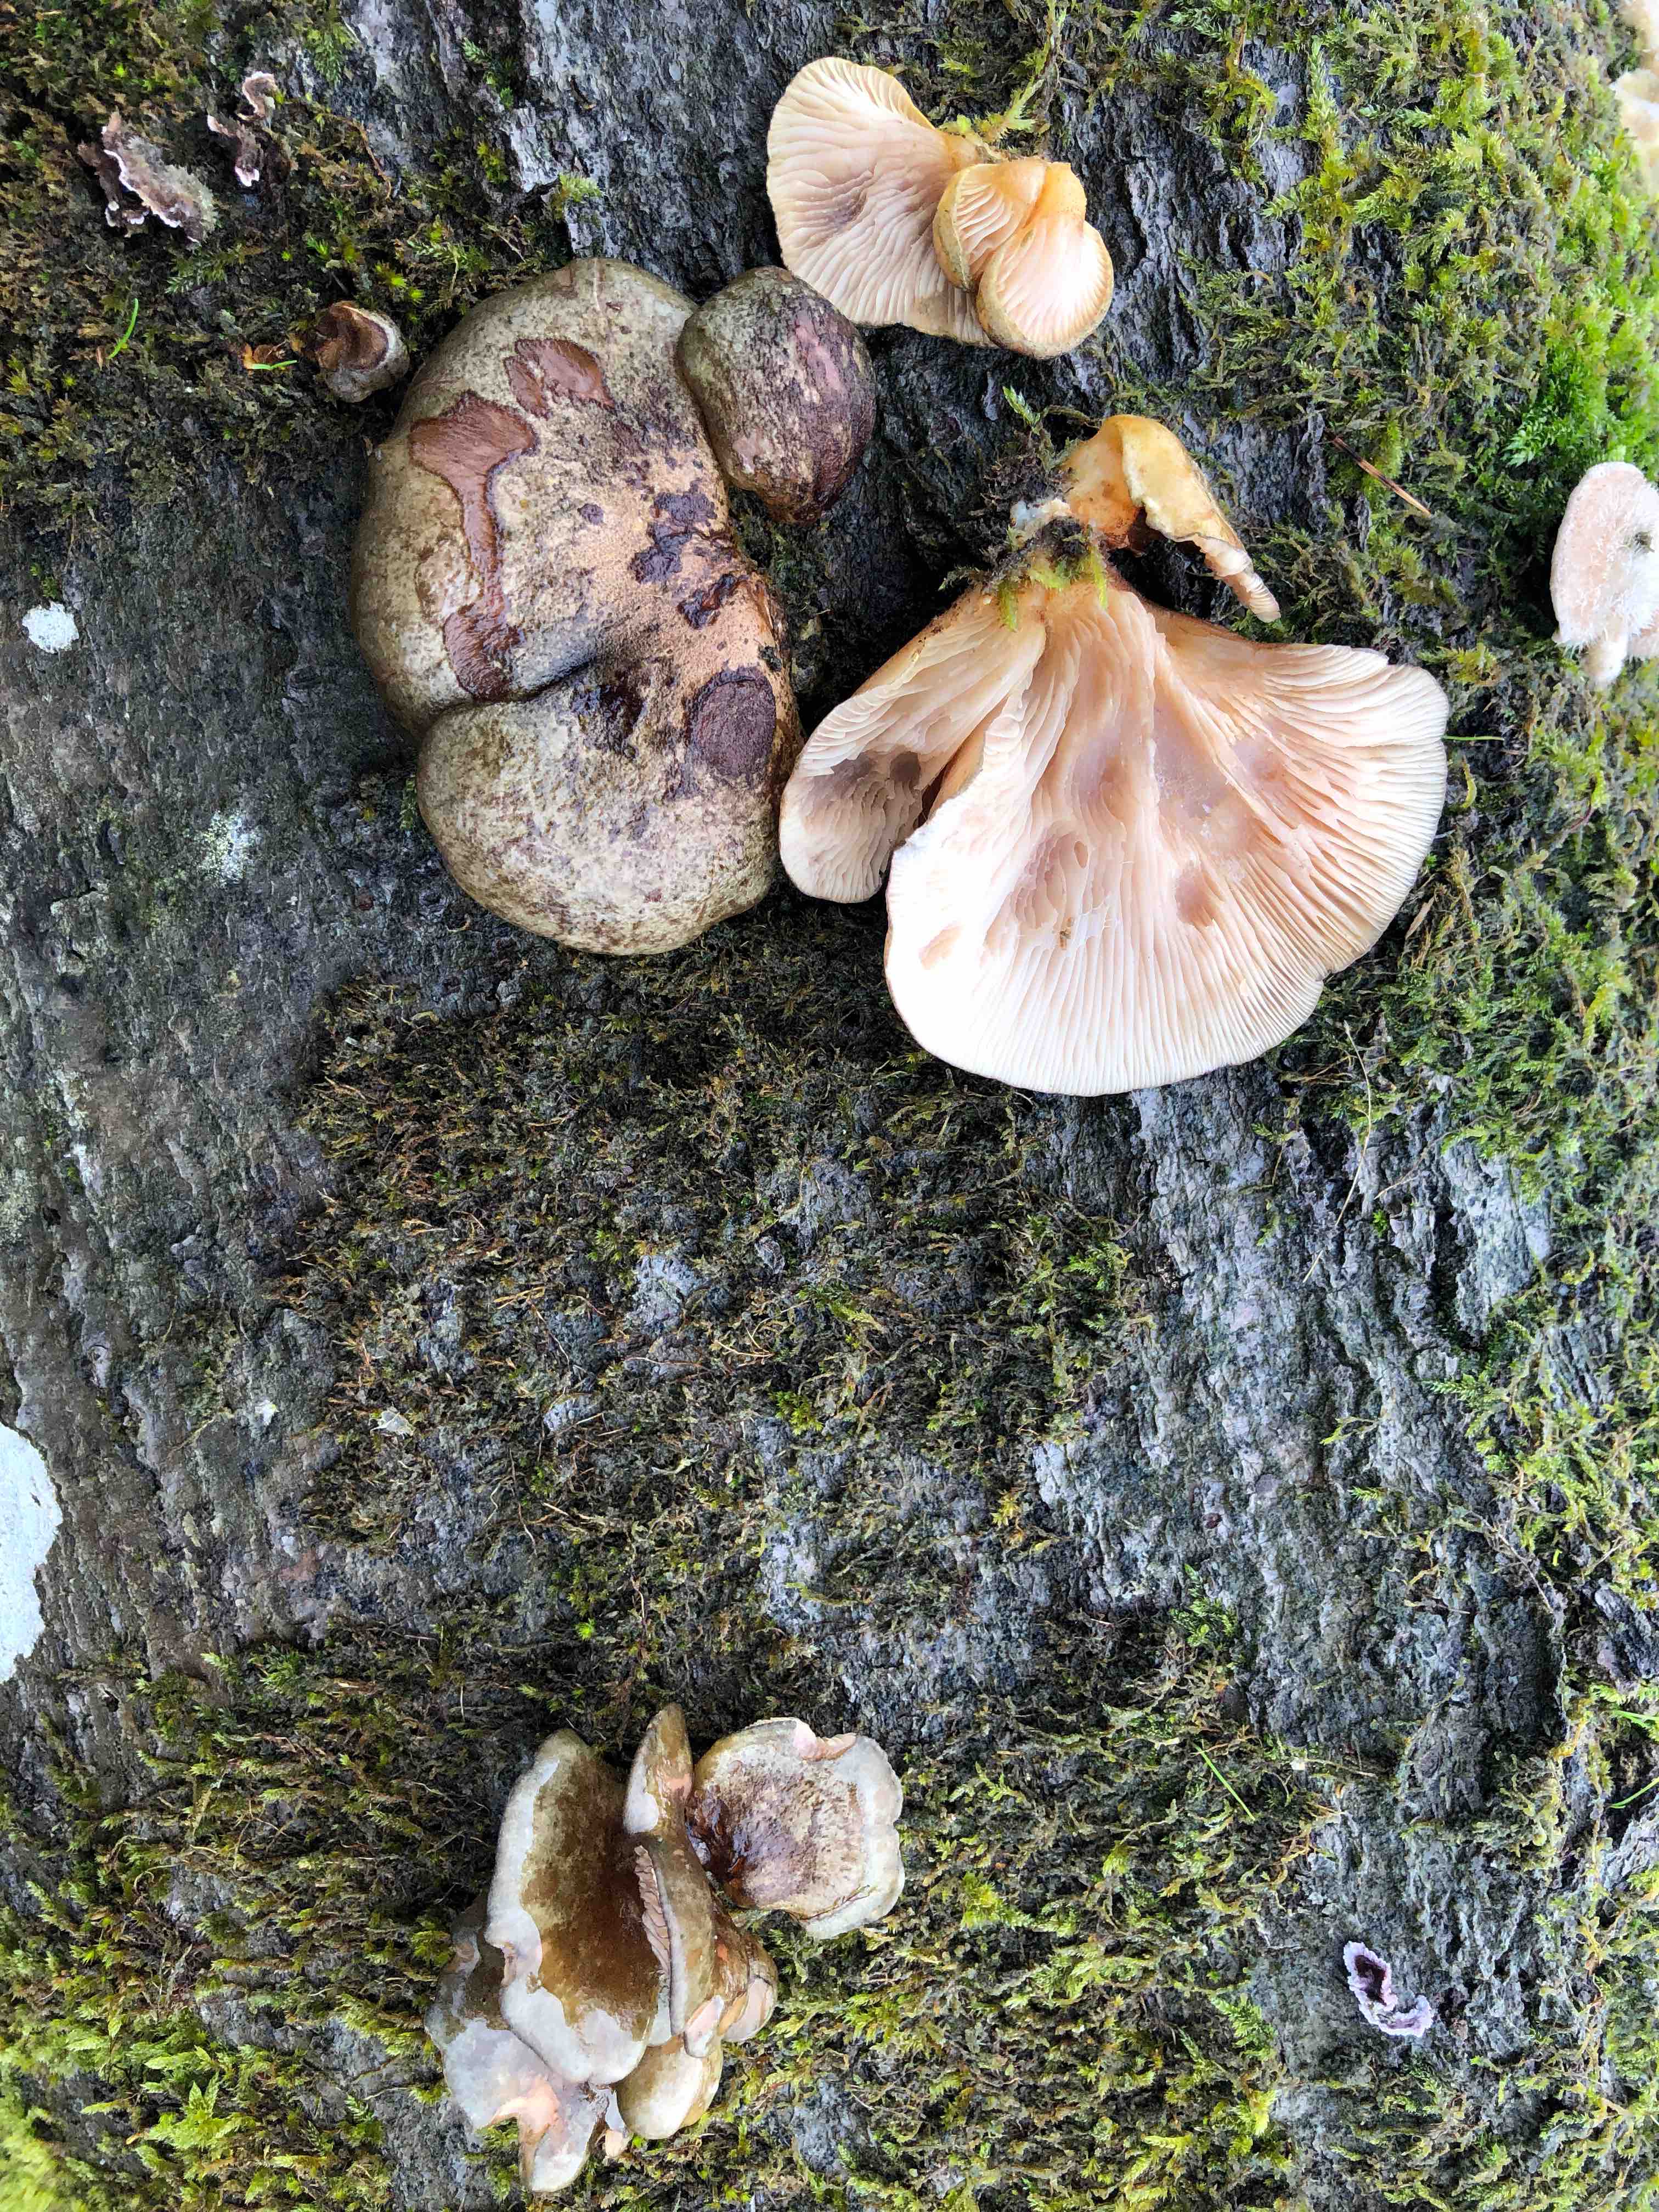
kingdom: Fungi
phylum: Basidiomycota
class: Agaricomycetes
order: Agaricales
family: Sarcomyxaceae
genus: Sarcomyxa
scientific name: Sarcomyxa serotina
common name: gummihat
